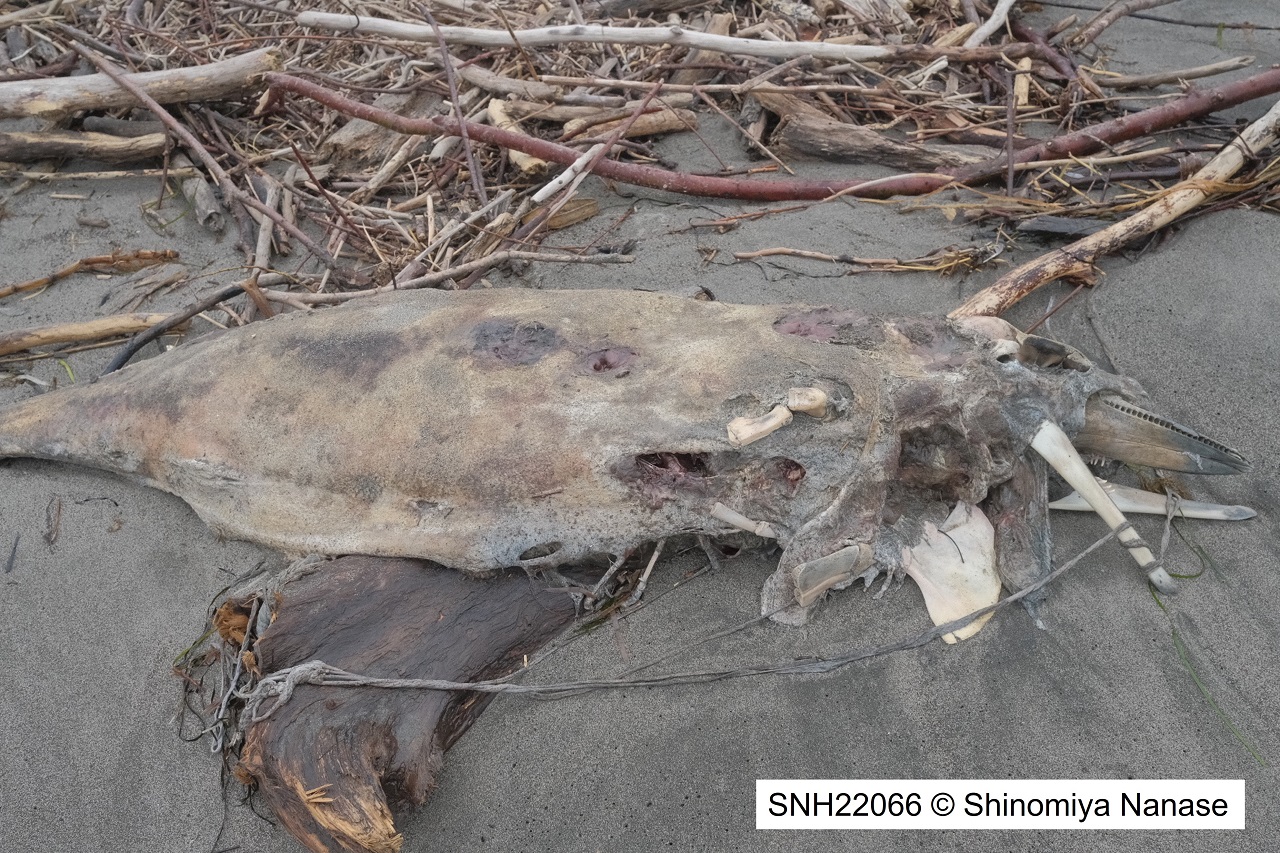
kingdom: Animalia
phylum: Chordata
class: Mammalia
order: Cetacea
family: Delphinidae
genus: Lagenorhynchus
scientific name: Lagenorhynchus obliquidens
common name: Pacific white-sided dolphin
